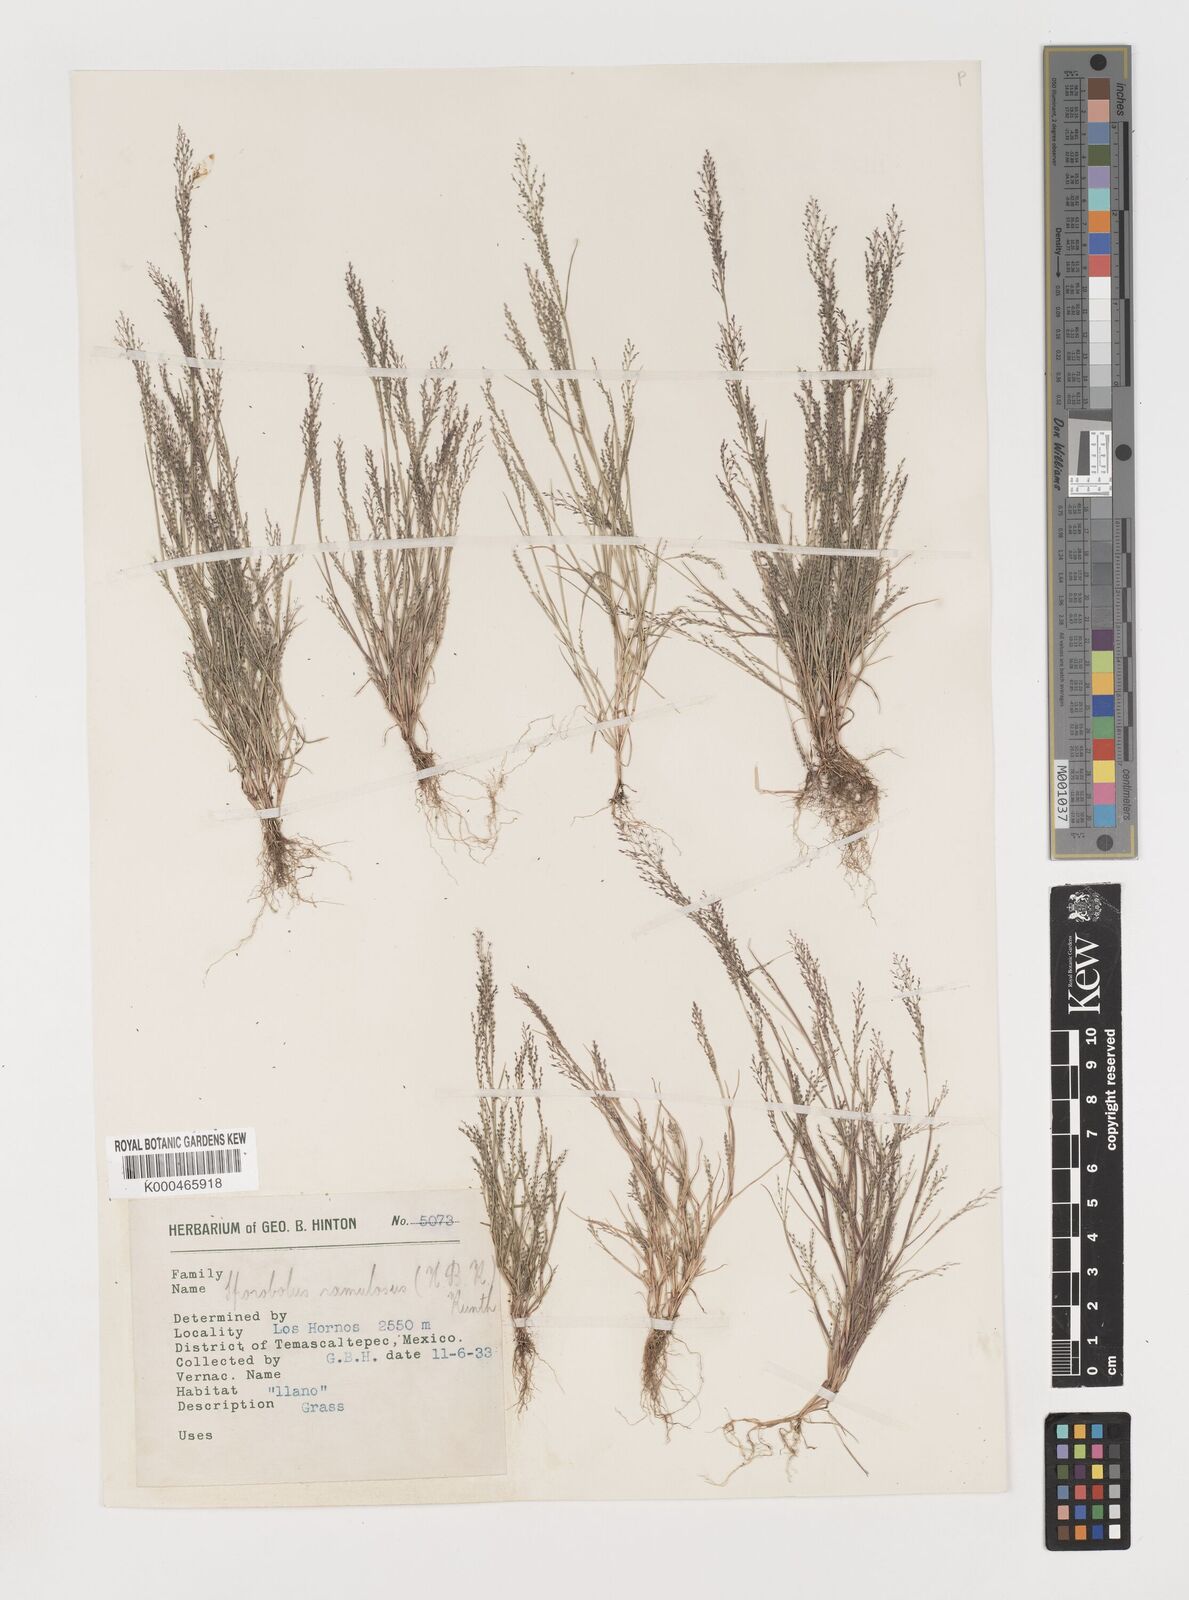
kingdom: Plantae
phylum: Tracheophyta
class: Liliopsida
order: Poales
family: Poaceae
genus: Muhlenbergia
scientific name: Muhlenbergia ramulosa
